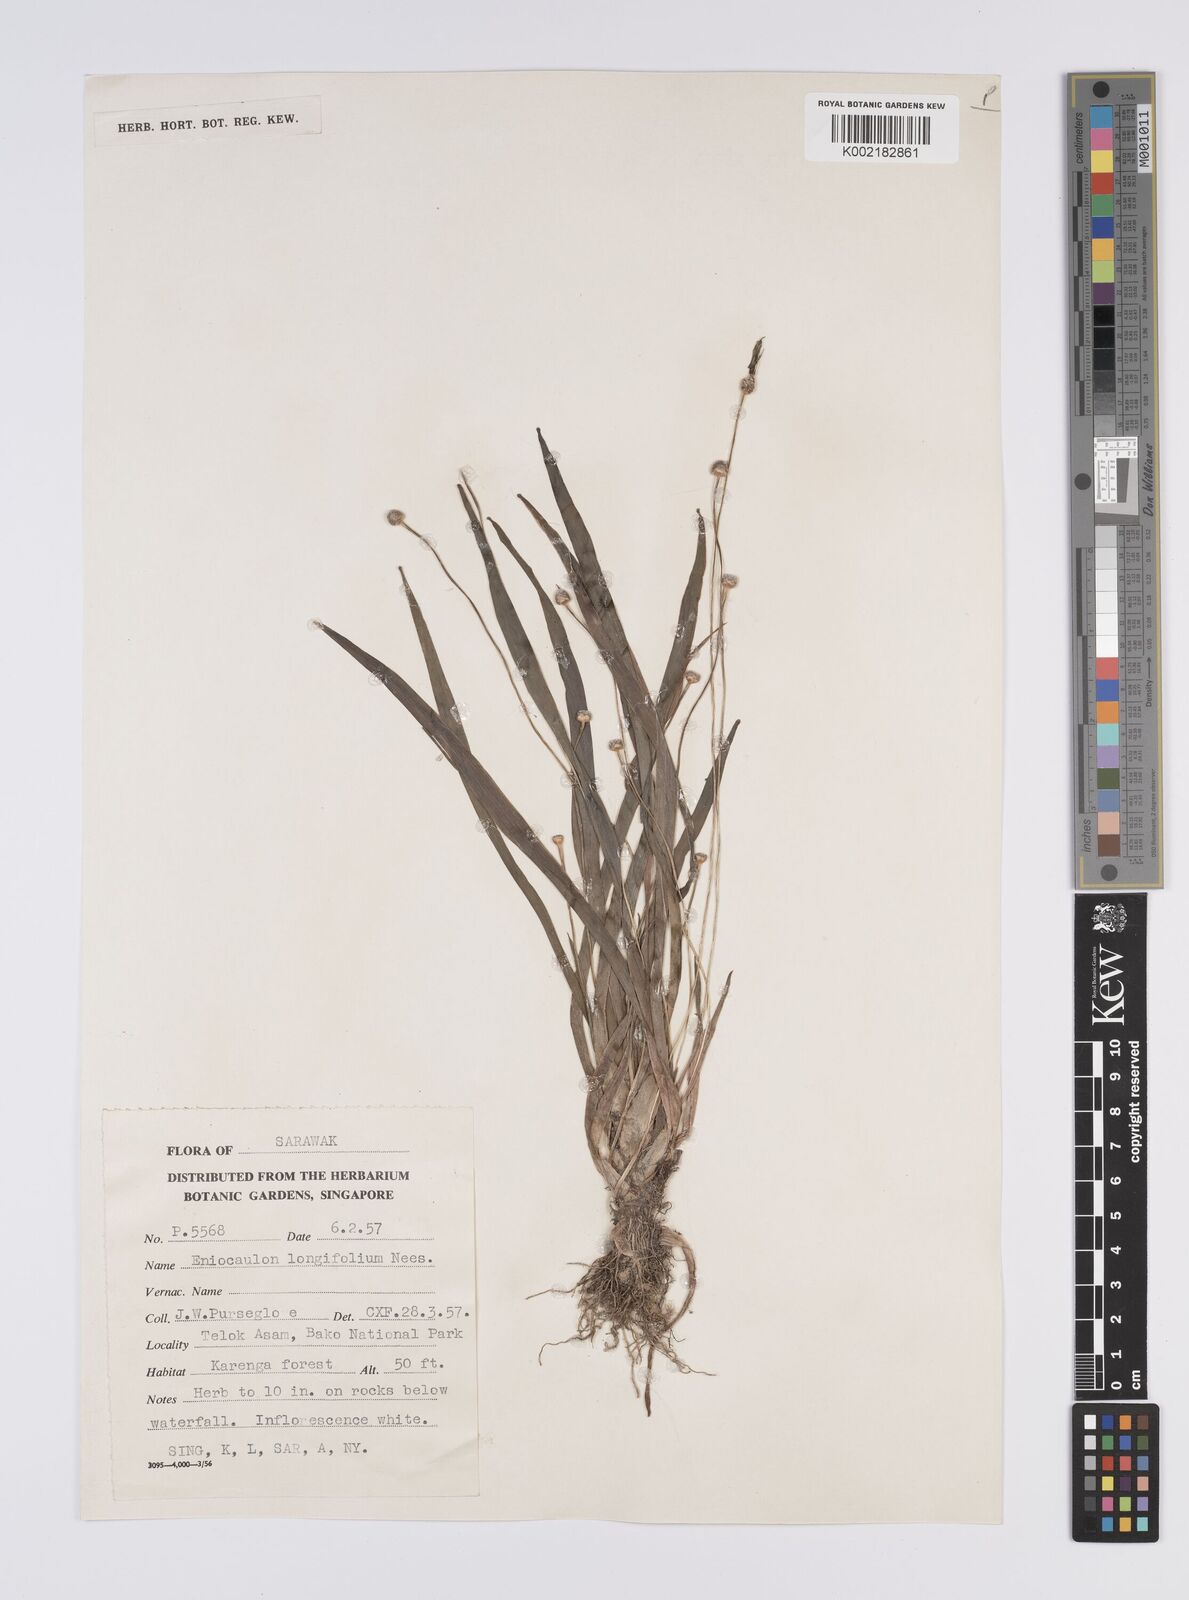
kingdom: Plantae
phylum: Tracheophyta
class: Liliopsida
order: Poales
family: Eriocaulaceae
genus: Eriocaulon
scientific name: Eriocaulon willdenovianum
